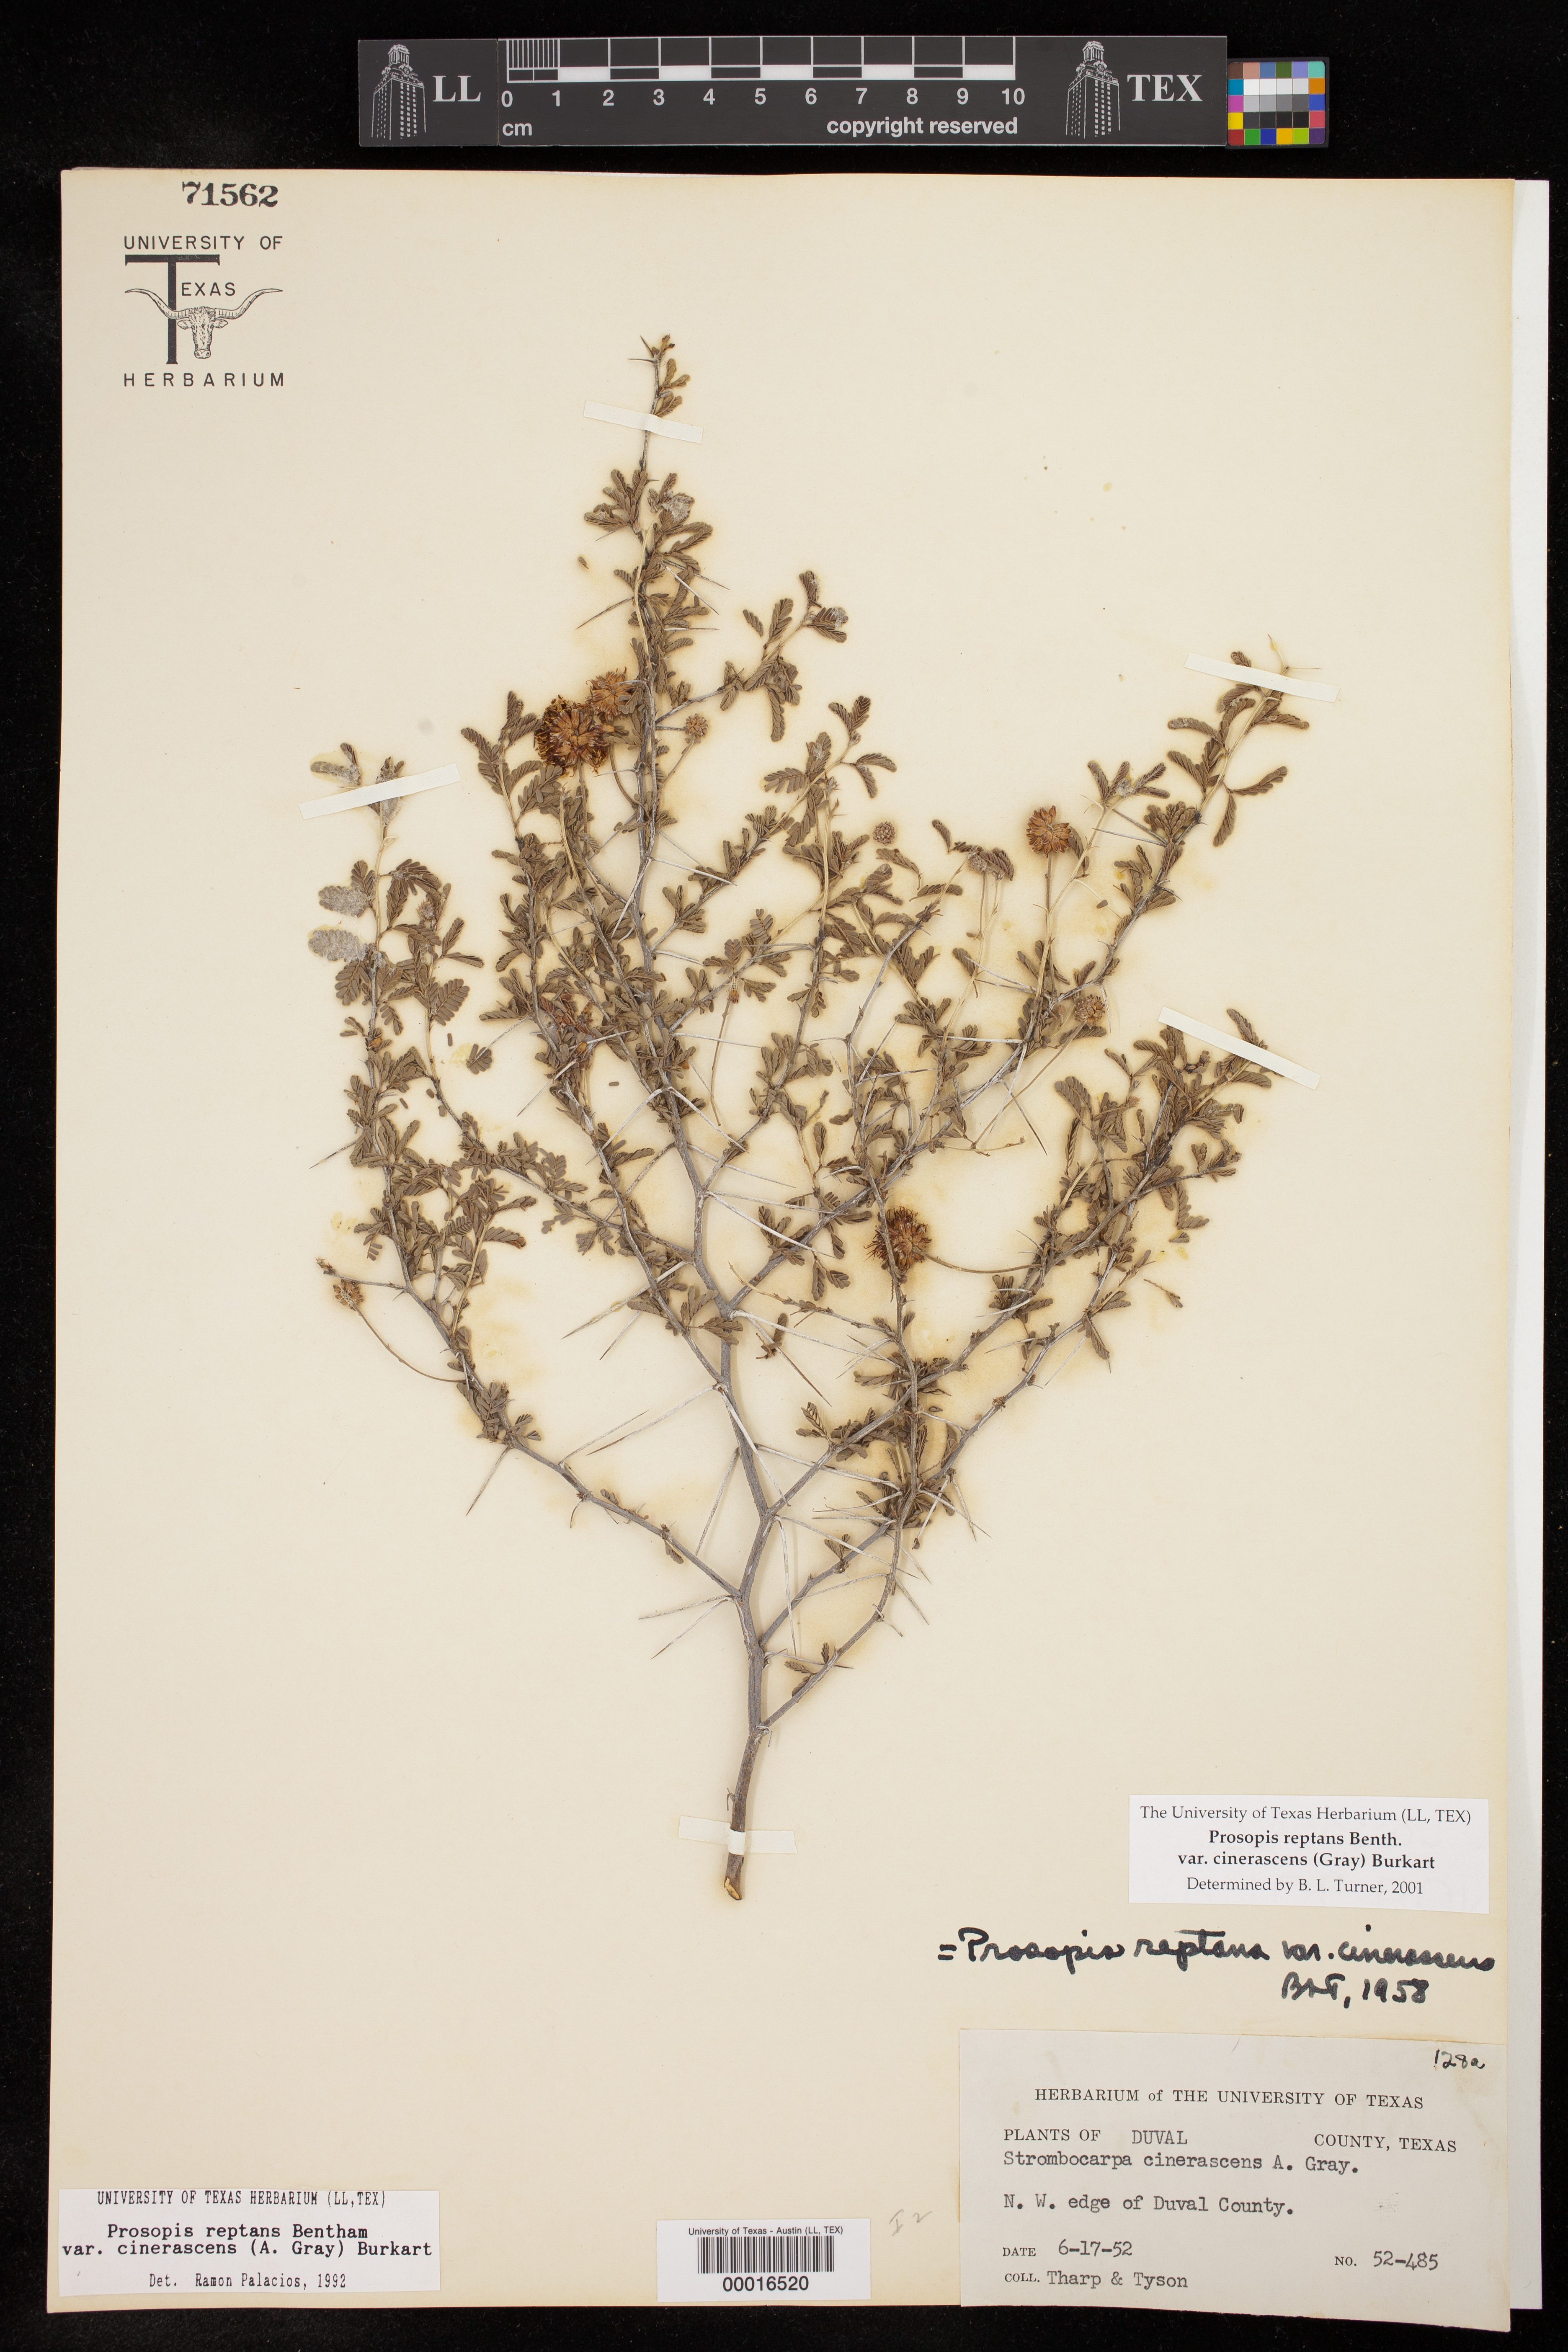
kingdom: Plantae
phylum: Tracheophyta
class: Magnoliopsida
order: Fabales
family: Fabaceae
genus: Prosopis
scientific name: Prosopis cinerascens
